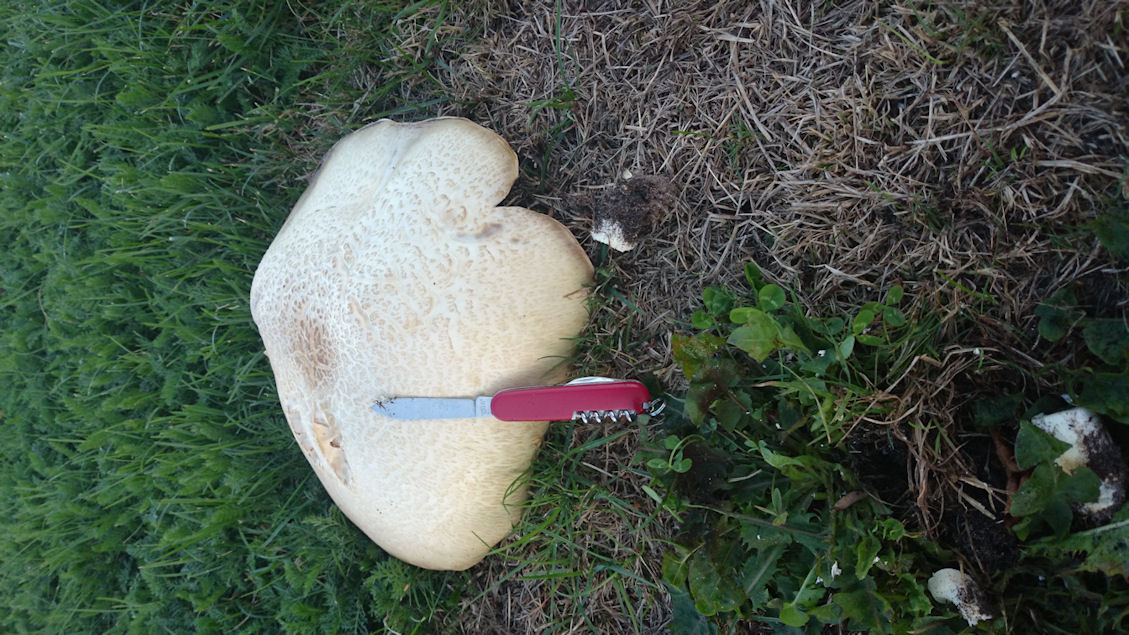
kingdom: Fungi
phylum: Basidiomycota
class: Agaricomycetes
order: Agaricales
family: Agaricaceae
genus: Agaricus
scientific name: Agaricus augustus
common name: prægtig champignon
